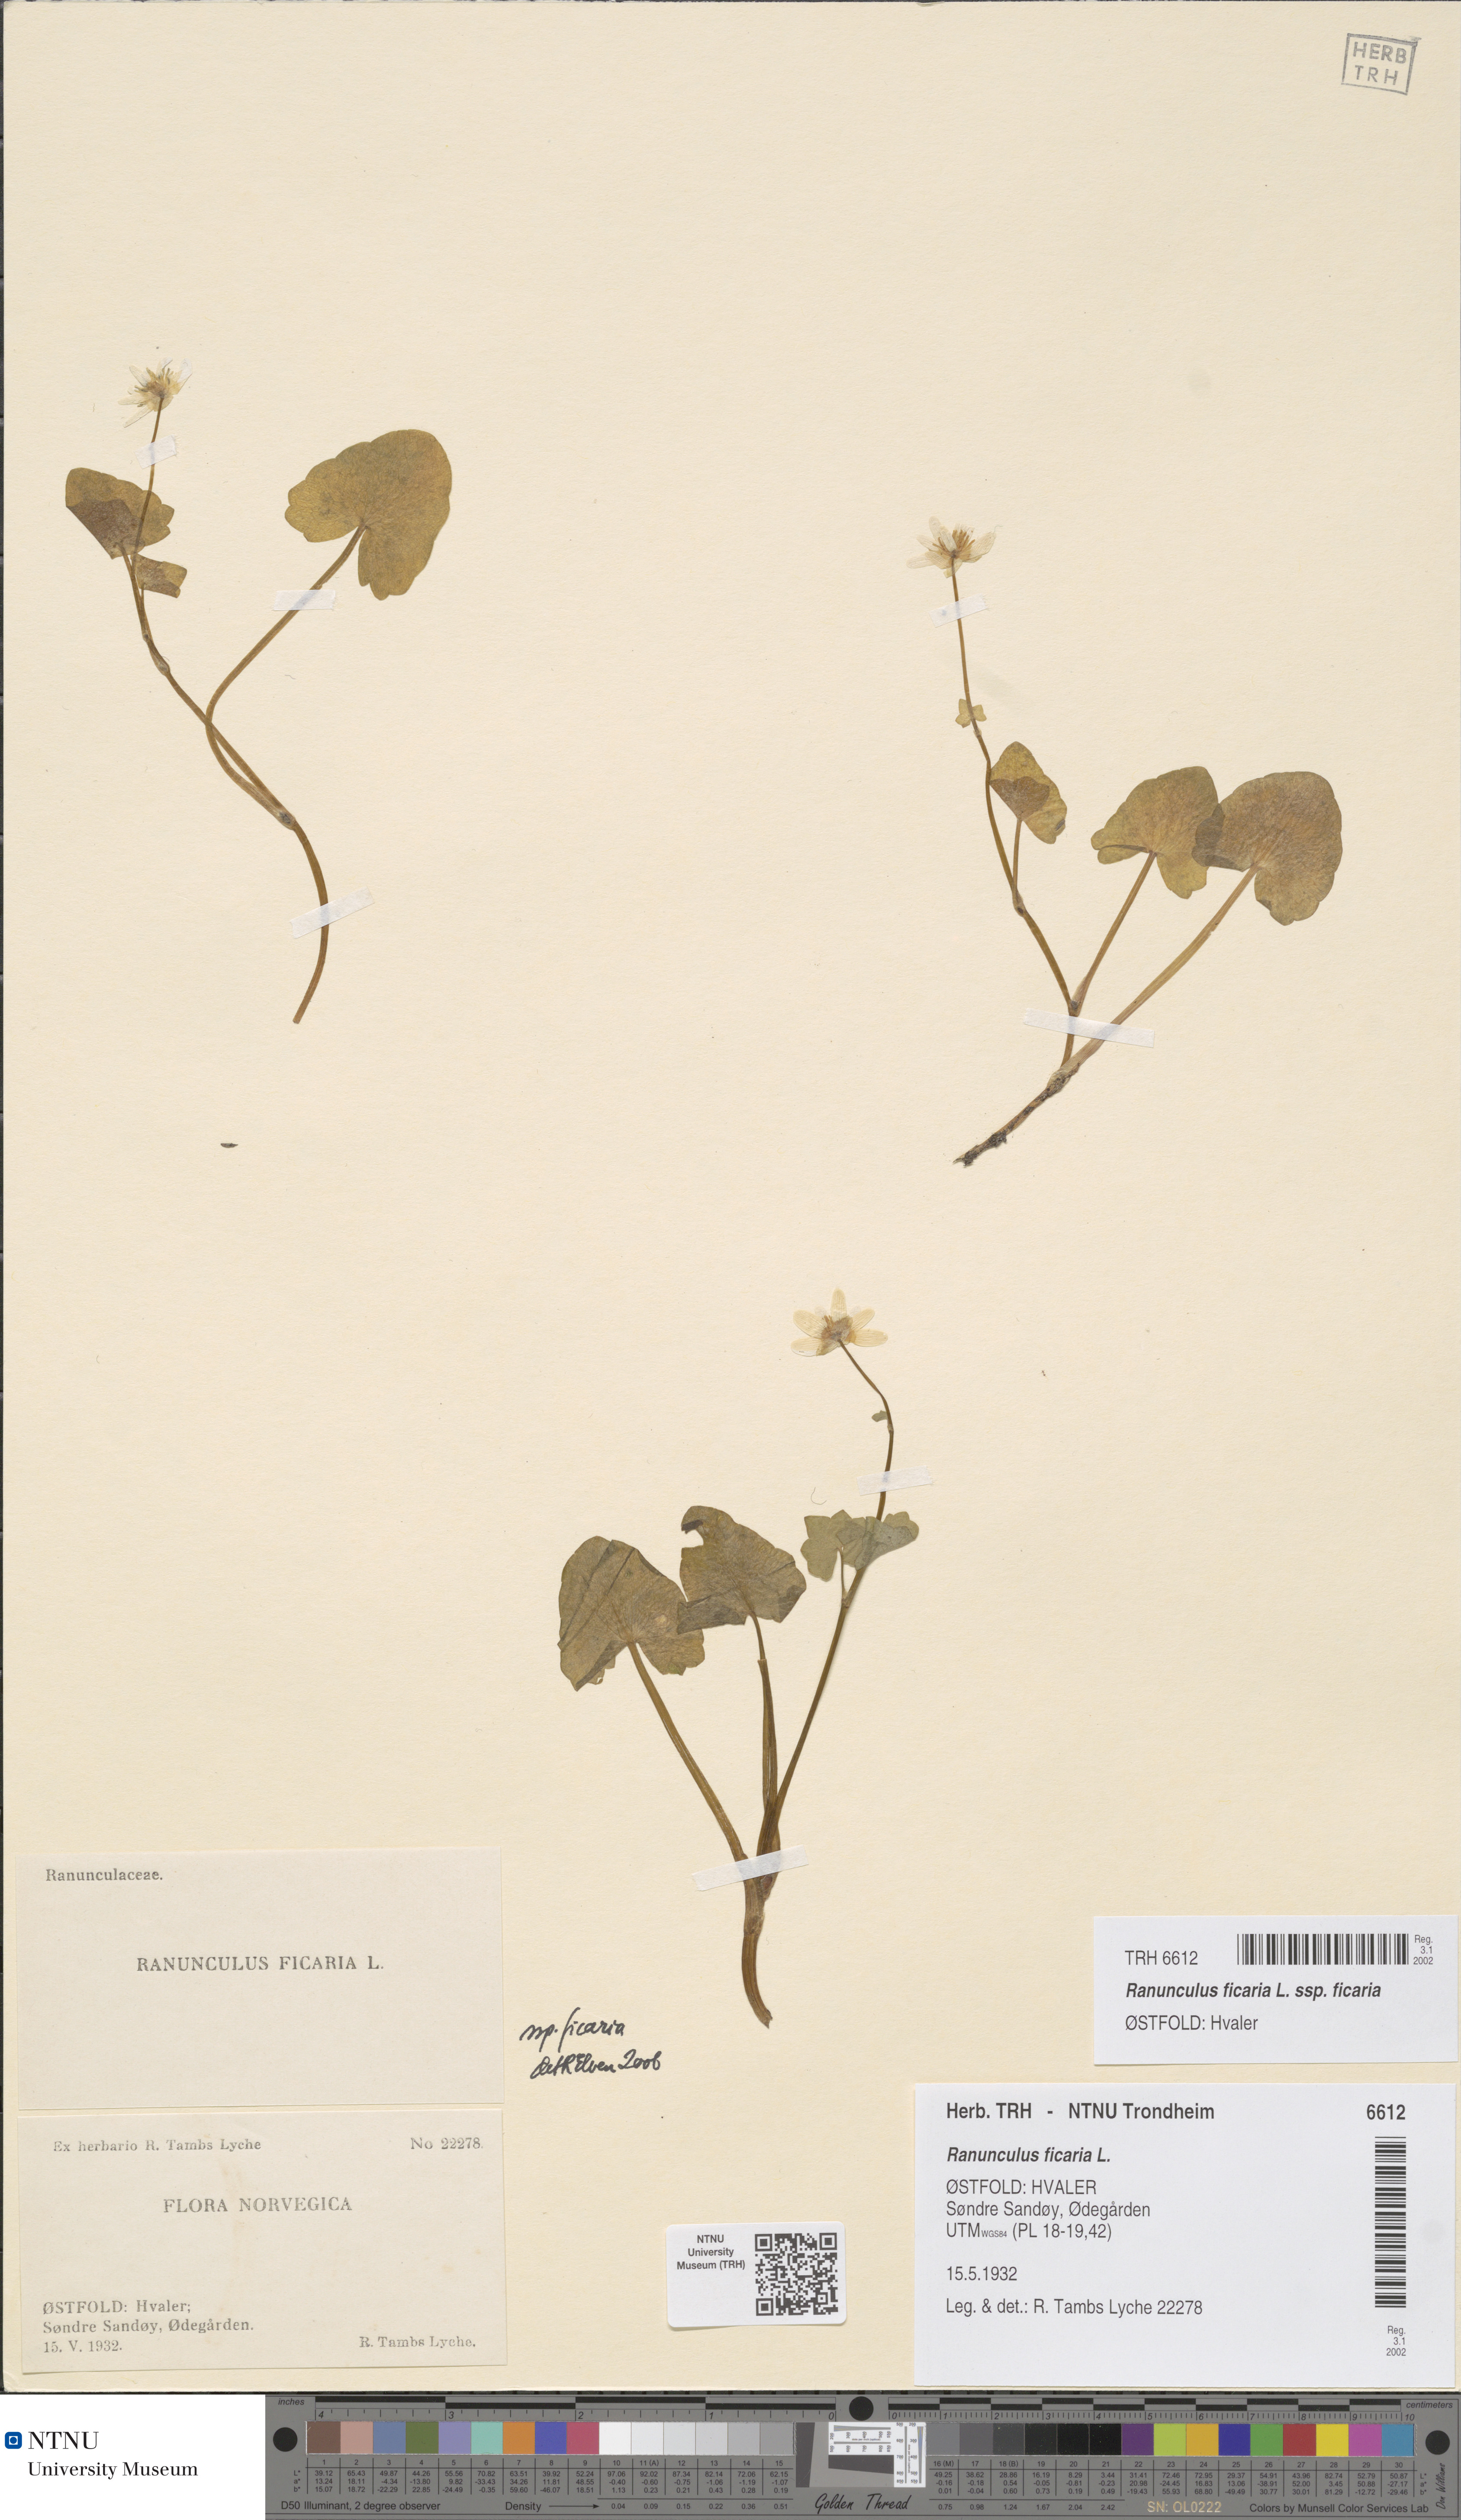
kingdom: Plantae
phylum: Tracheophyta
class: Magnoliopsida
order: Ranunculales
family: Ranunculaceae
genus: Ficaria
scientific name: Ficaria verna
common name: Lesser celandine
